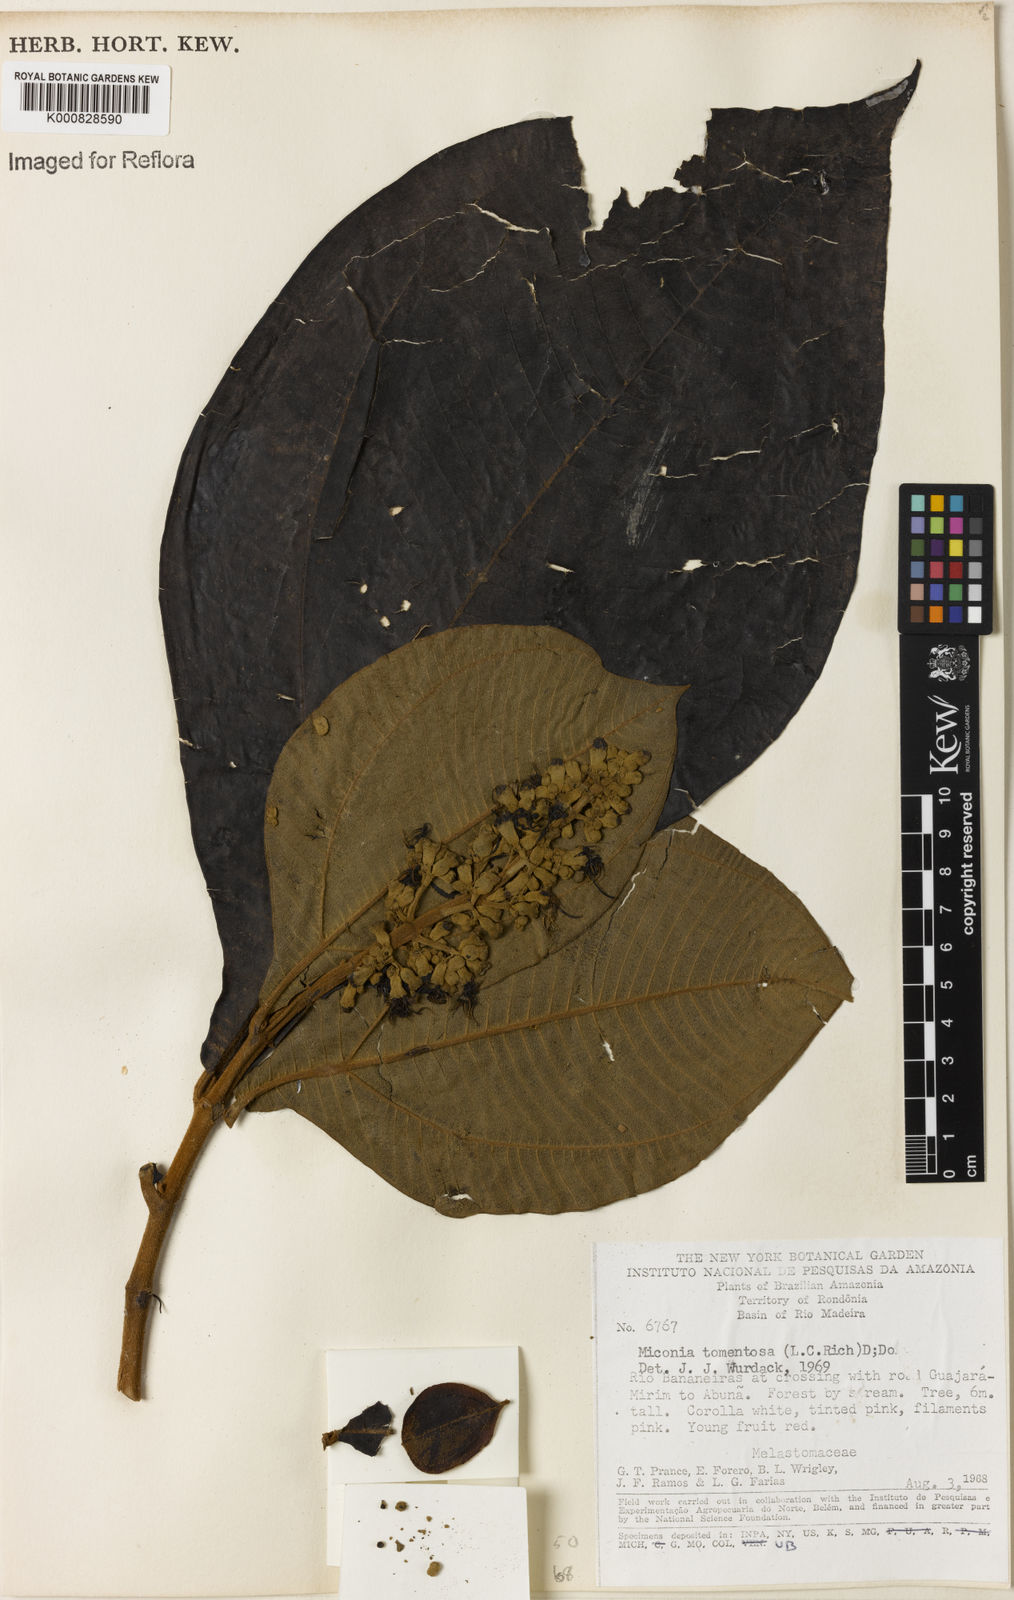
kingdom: Plantae
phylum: Tracheophyta
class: Magnoliopsida
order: Myrtales
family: Melastomataceae
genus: Miconia
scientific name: Miconia tomentosa
